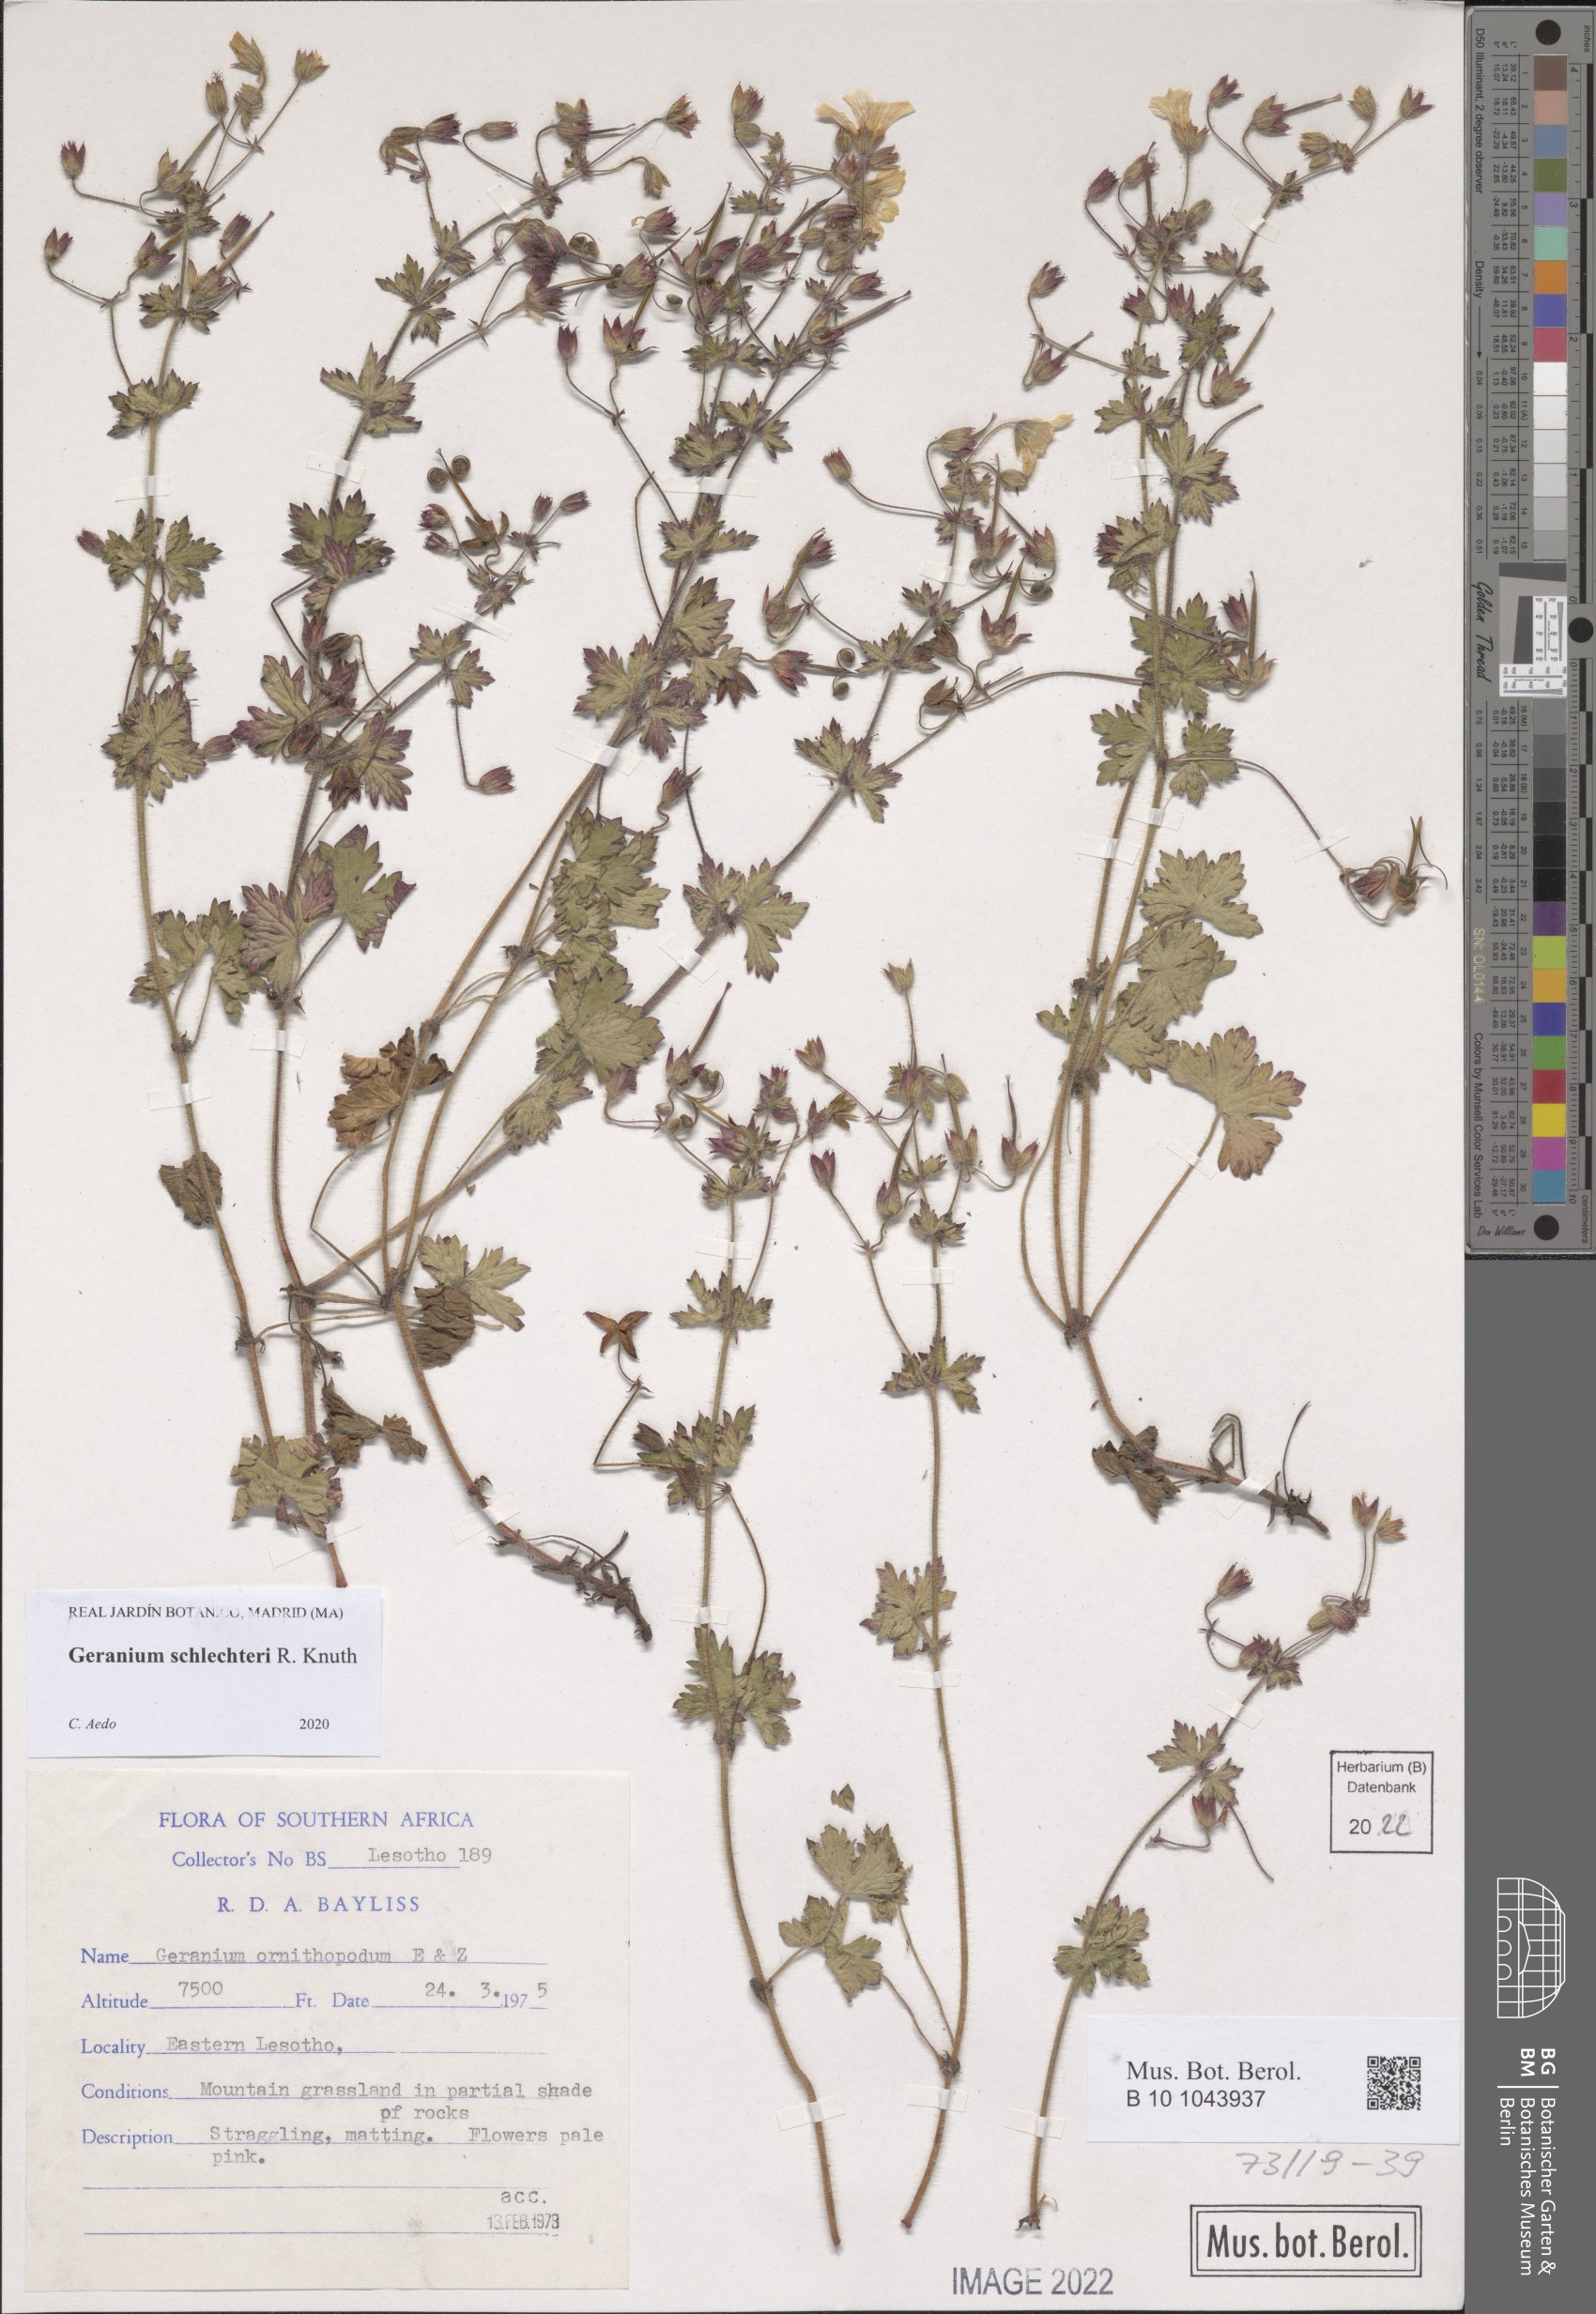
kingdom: Plantae
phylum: Tracheophyta
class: Magnoliopsida
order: Geraniales
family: Geraniaceae
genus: Geranium
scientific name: Geranium schlechteri
